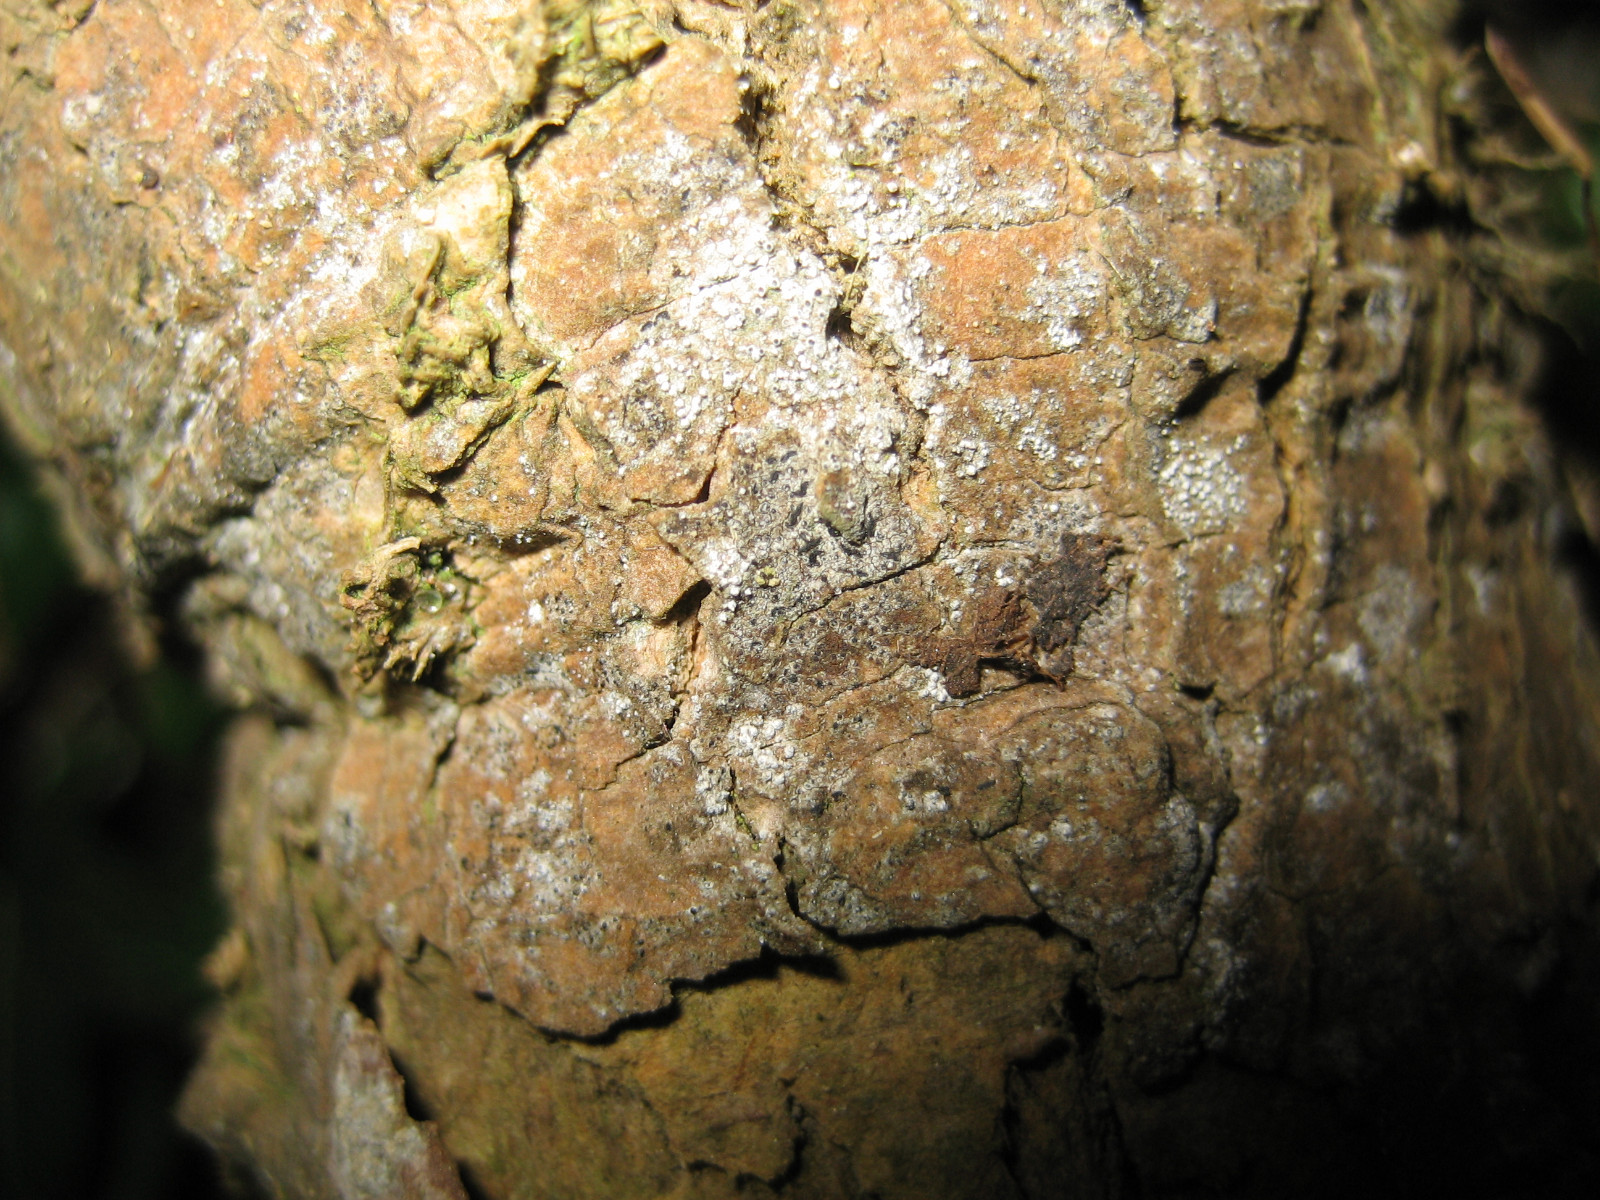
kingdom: Fungi
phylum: Ascomycota
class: Arthoniomycetes
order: Arthoniales
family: Opegraphaceae
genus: Opegrapha
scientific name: Opegrapha vermicellifera
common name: nåleprikket bogstavlav
